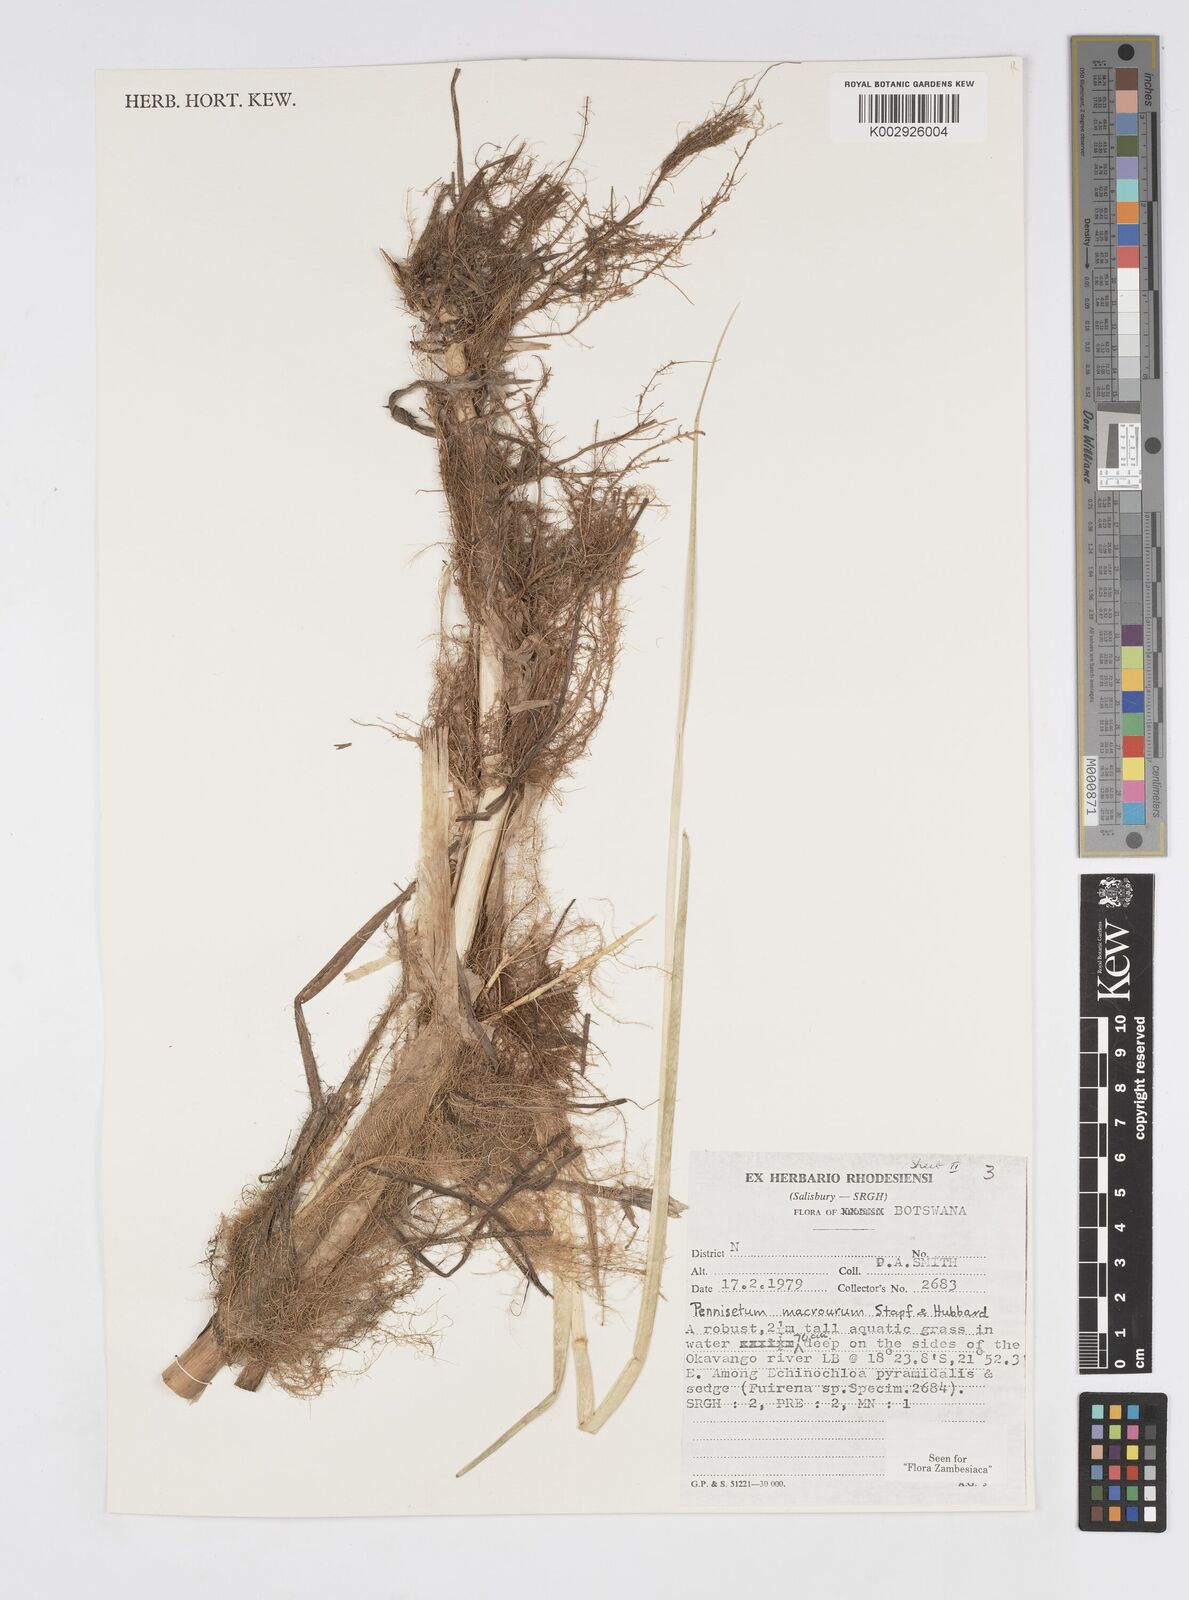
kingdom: Plantae
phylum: Tracheophyta
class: Liliopsida
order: Poales
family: Poaceae
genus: Cenchrus
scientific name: Cenchrus caudatus
